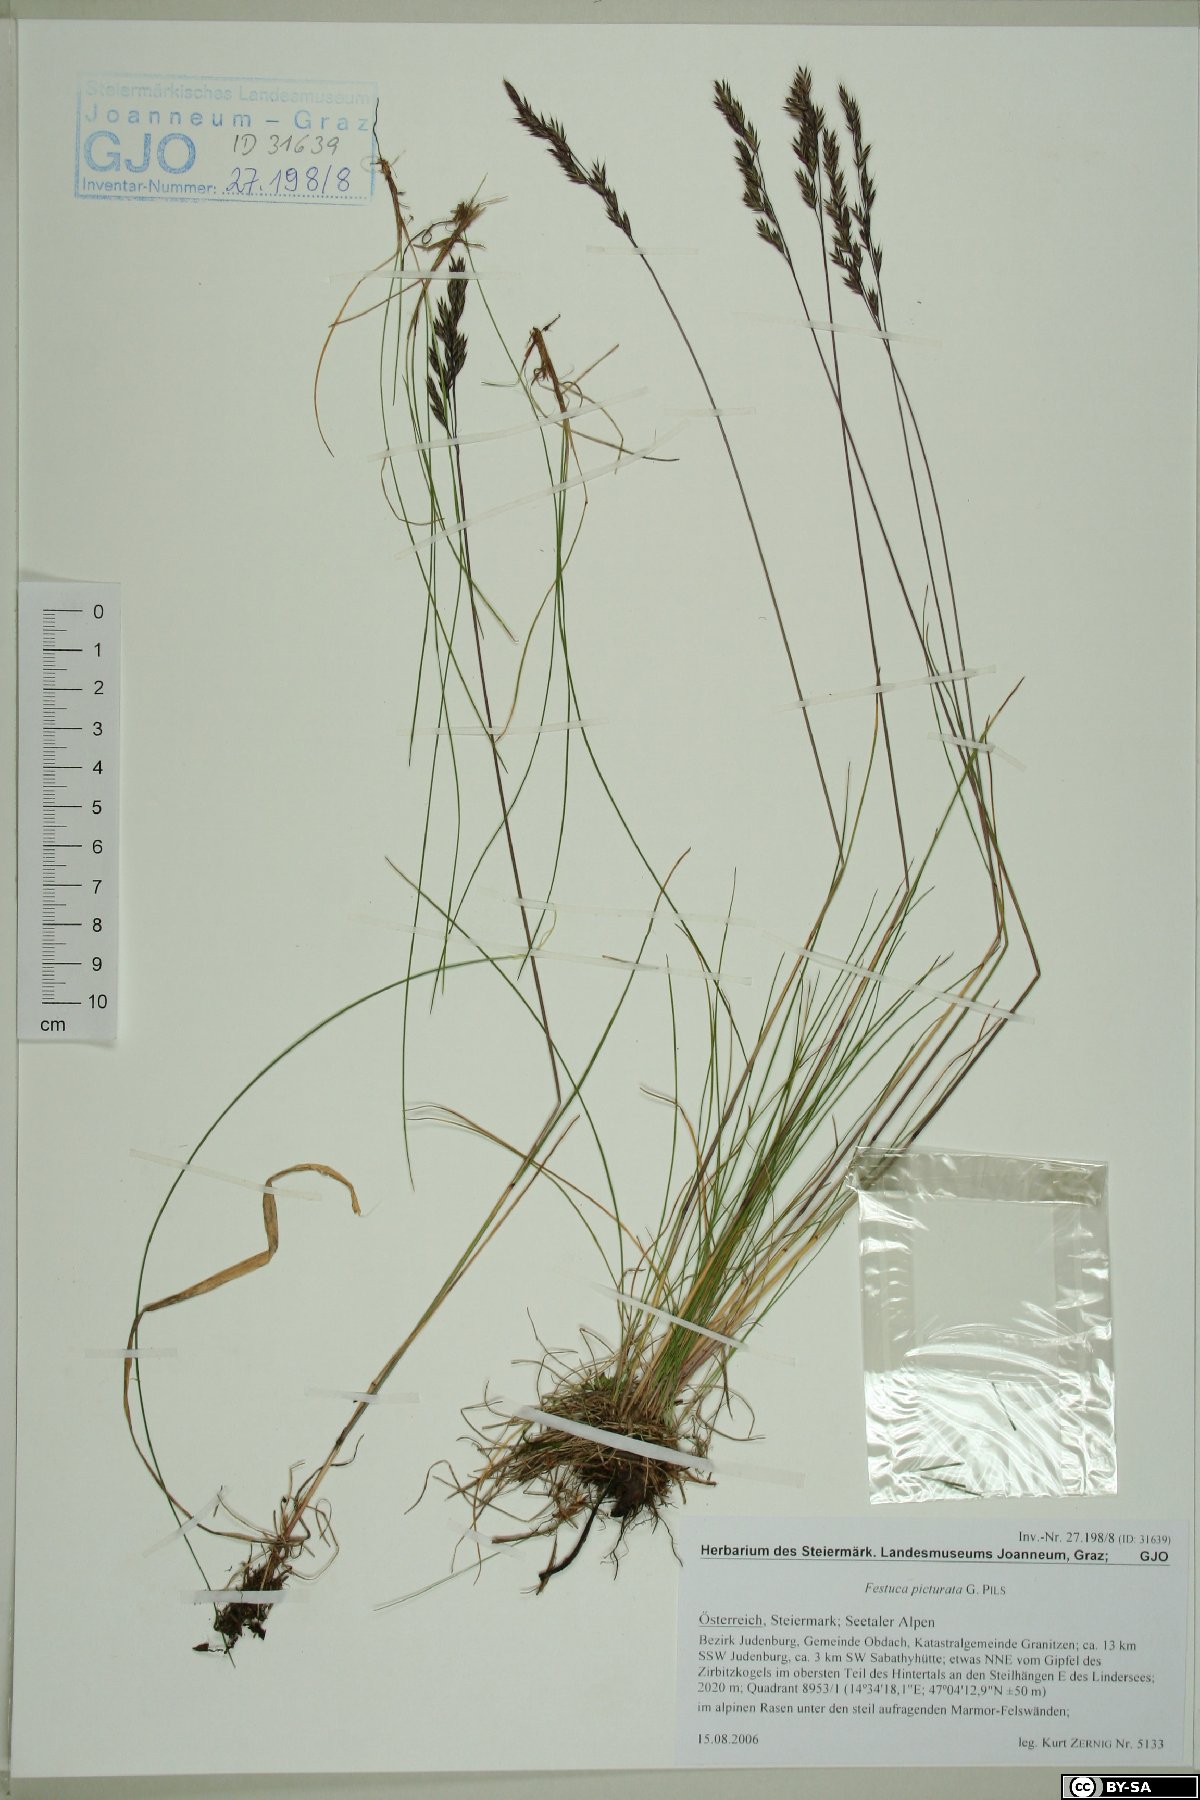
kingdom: Plantae
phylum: Tracheophyta
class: Liliopsida
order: Poales
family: Poaceae
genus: Festuca
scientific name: Festuca picturata
